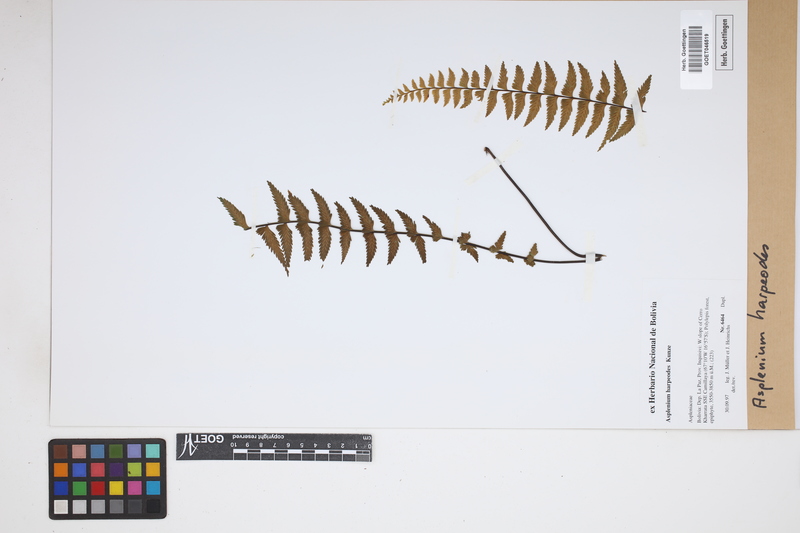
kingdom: Plantae
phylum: Tracheophyta
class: Polypodiopsida
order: Polypodiales
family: Aspleniaceae
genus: Asplenium
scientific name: Asplenium harpeodes
